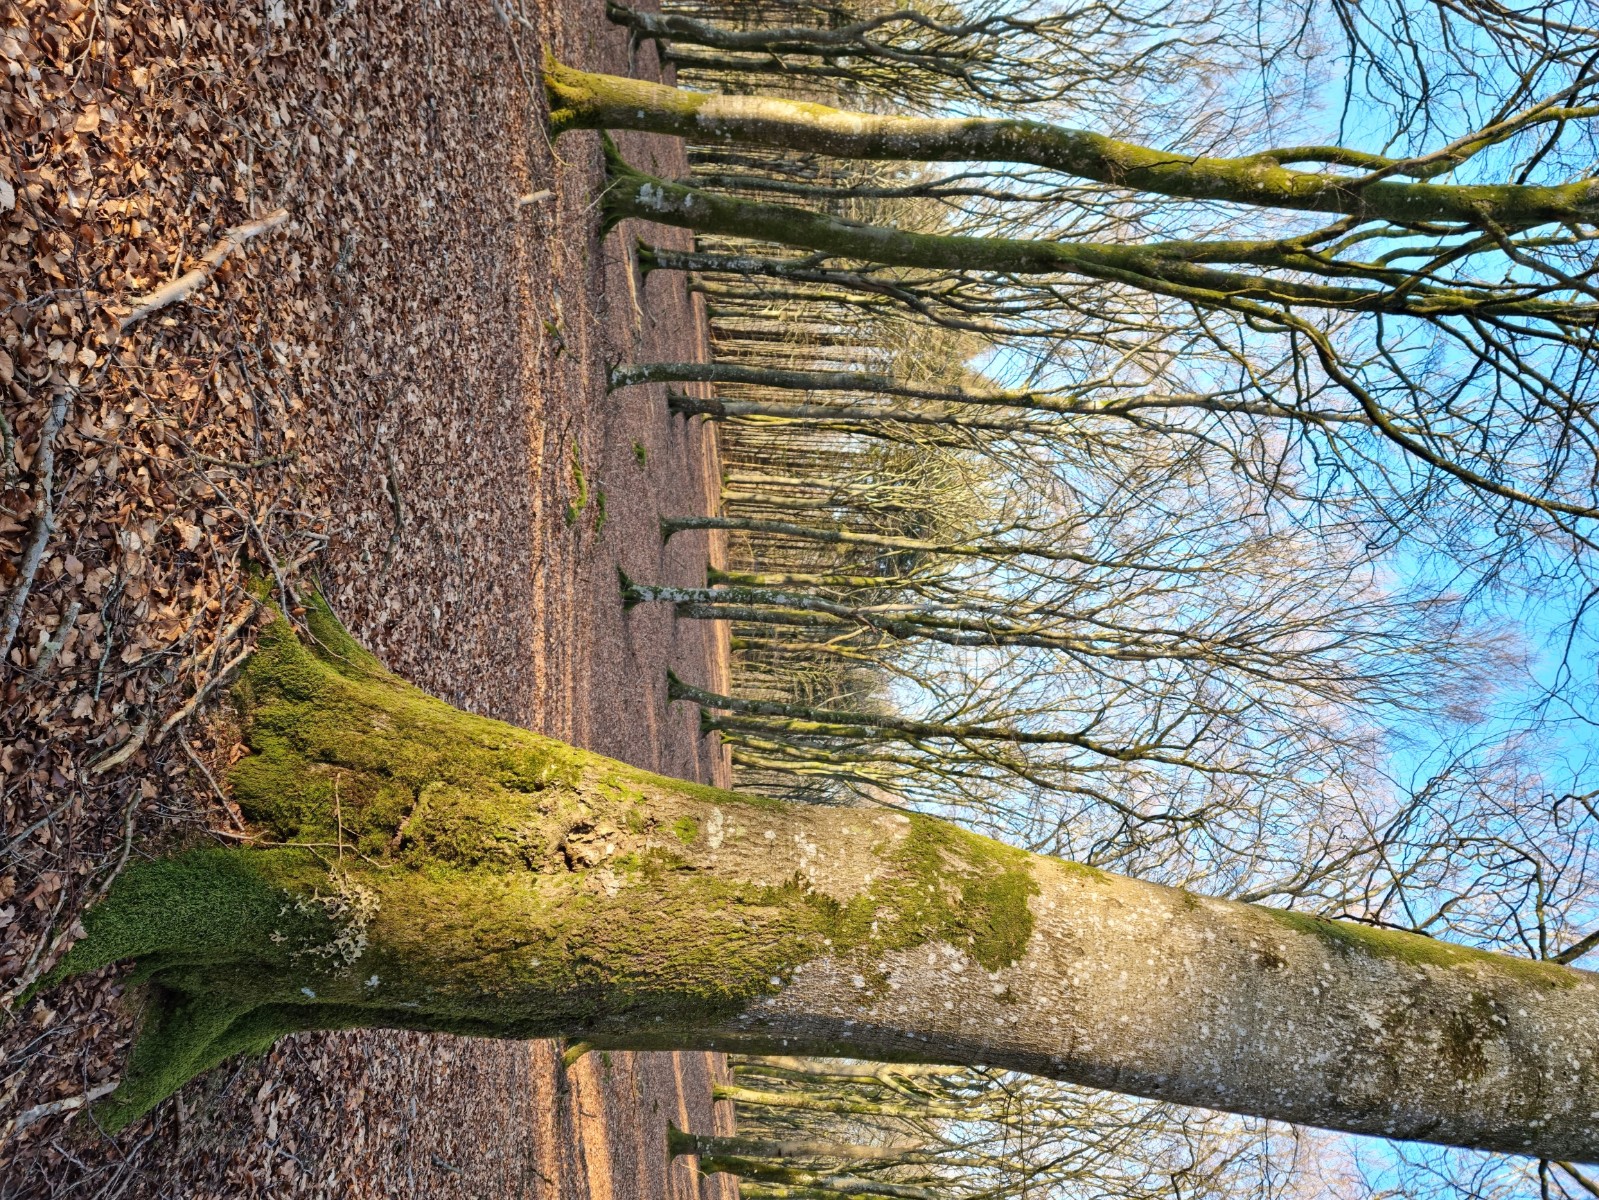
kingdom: Fungi
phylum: Ascomycota
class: Lecanoromycetes
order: Peltigerales
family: Lobariaceae
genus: Lobaria
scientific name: Lobaria pulmonaria
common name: almindelig lungelav
